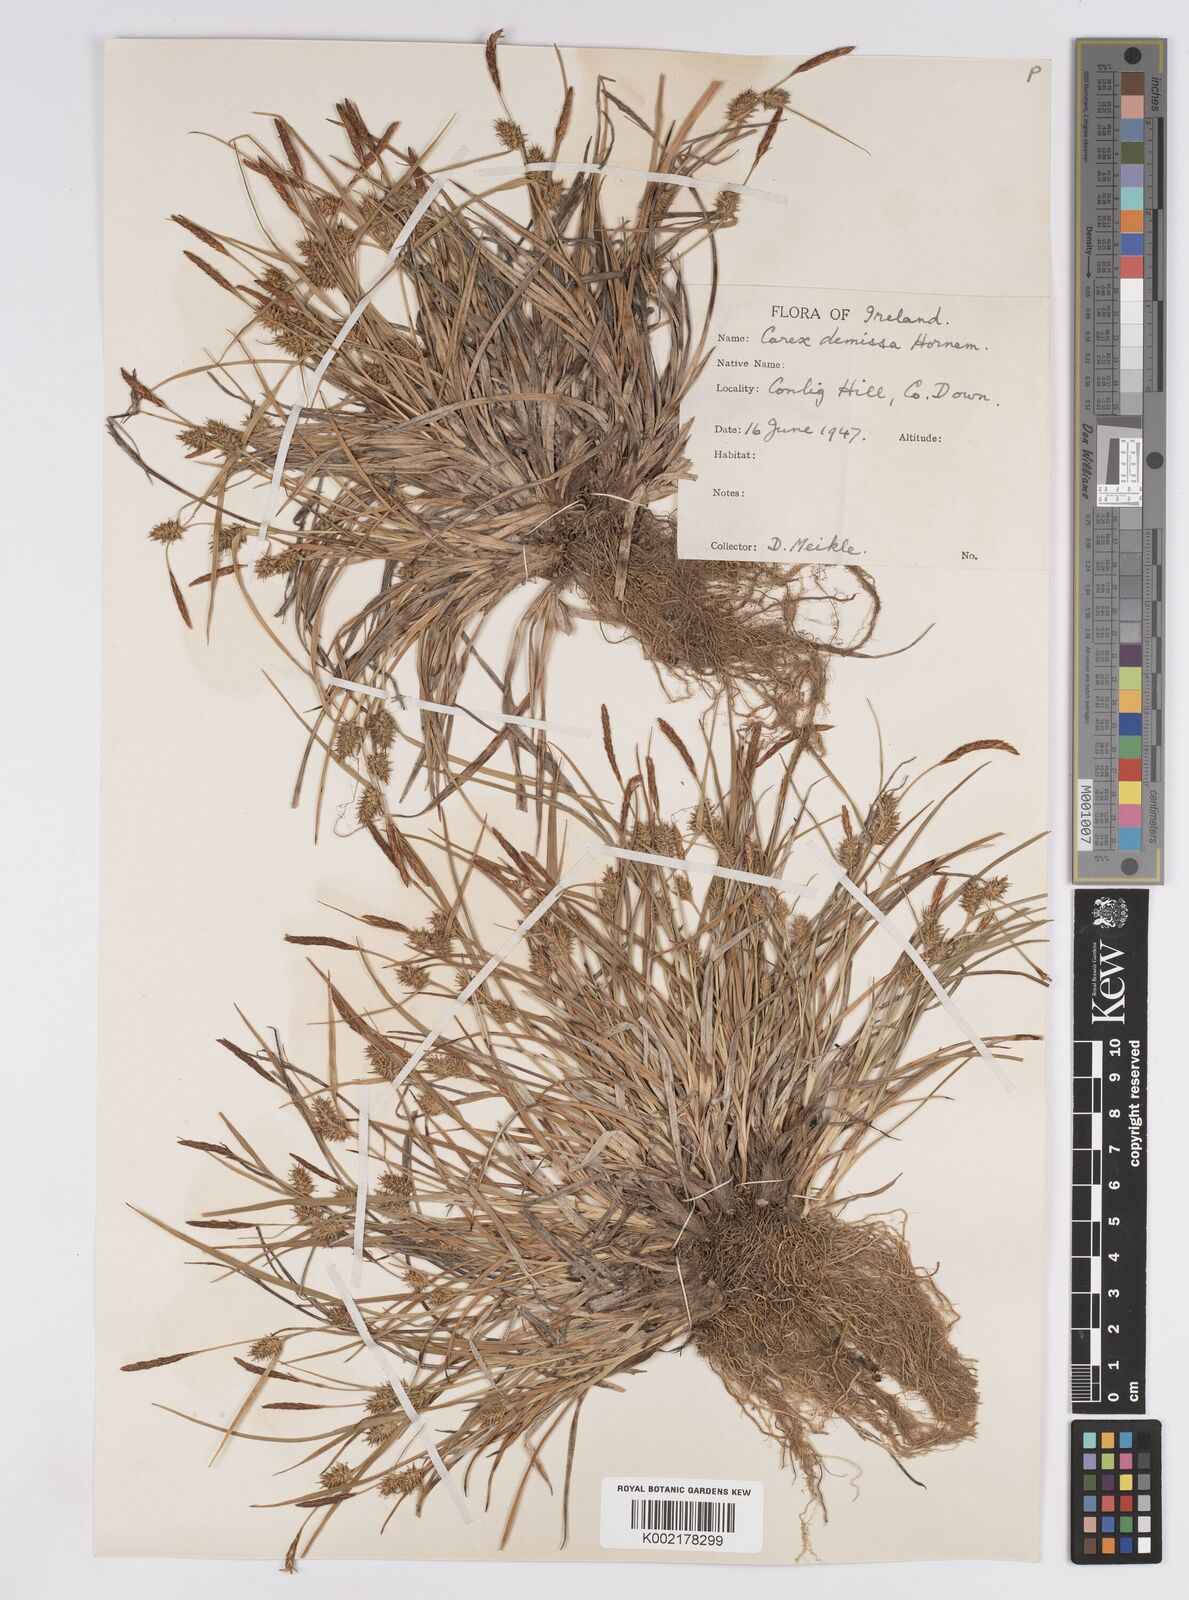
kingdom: Plantae
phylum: Tracheophyta
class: Liliopsida
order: Poales
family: Cyperaceae
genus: Carex
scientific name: Carex demissa
